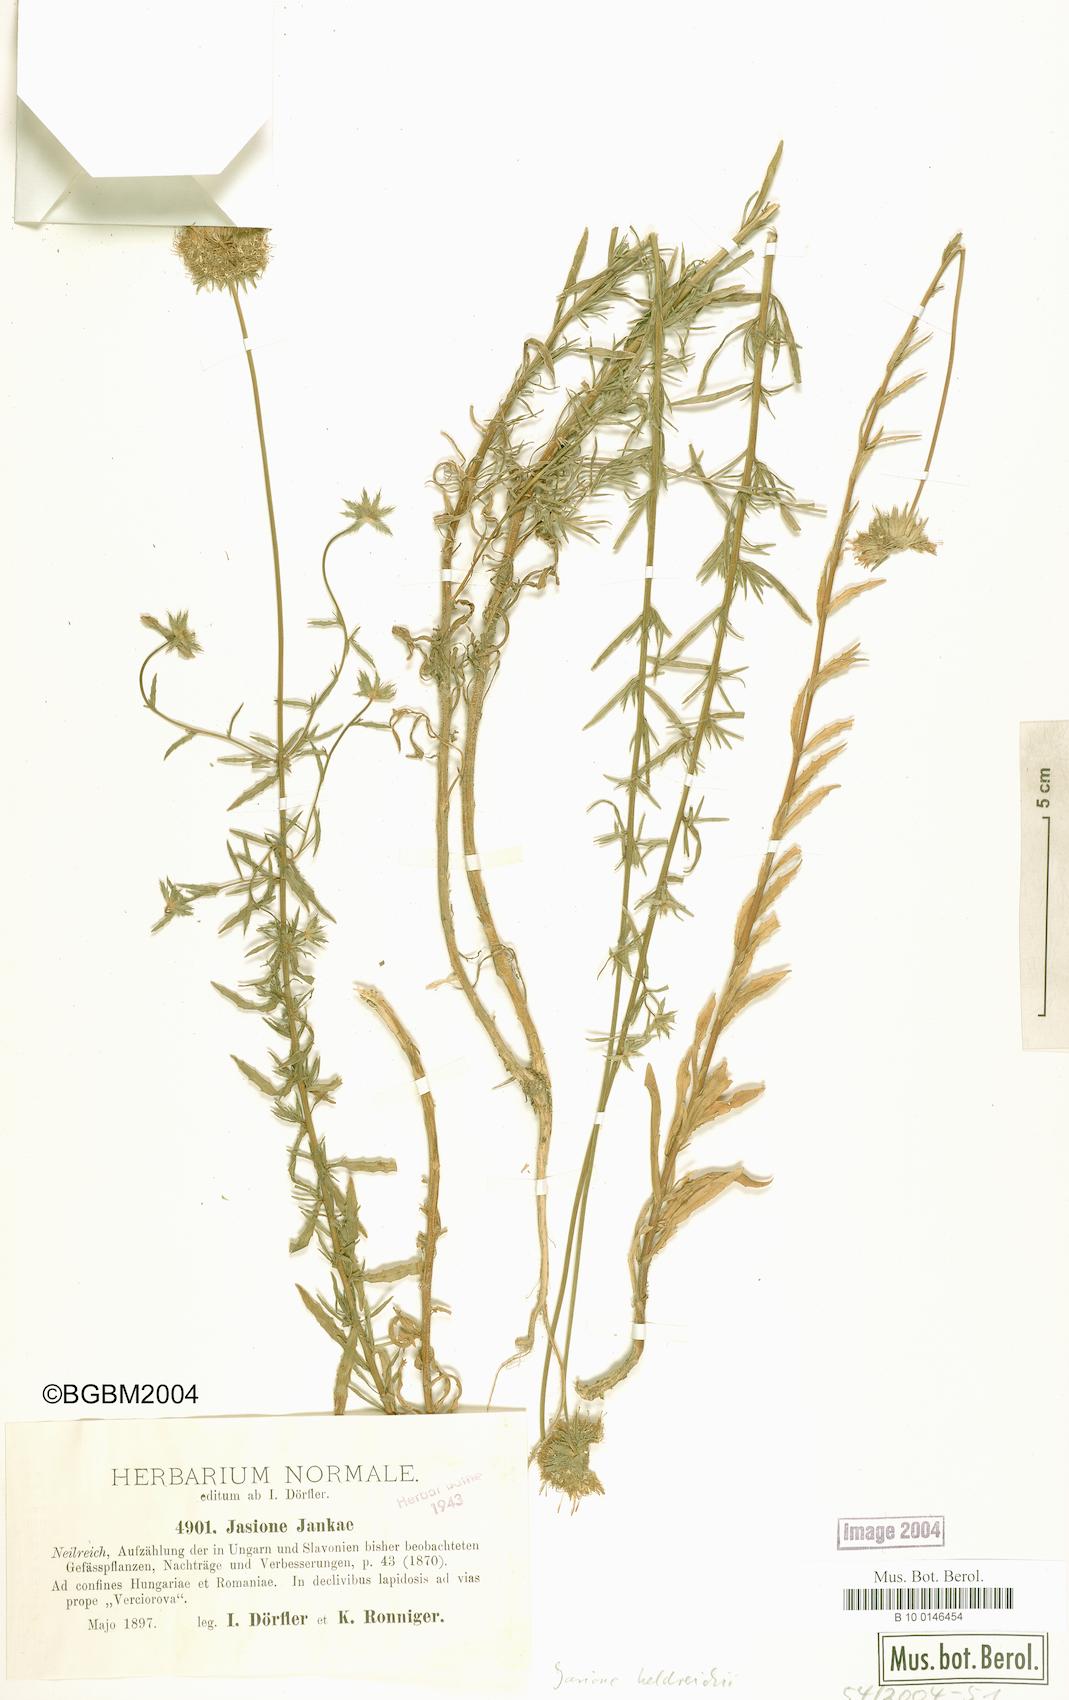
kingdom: Plantae
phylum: Tracheophyta
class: Magnoliopsida
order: Asterales
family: Campanulaceae
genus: Jasione
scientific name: Jasione heldreichii
